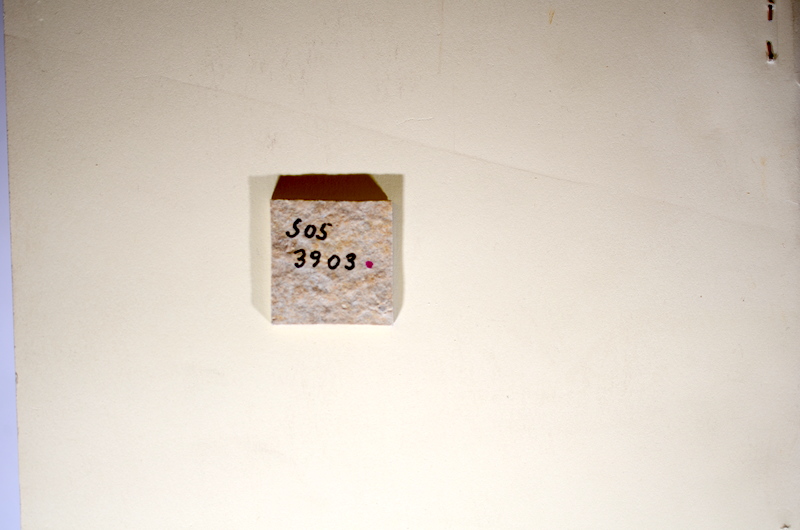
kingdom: Animalia
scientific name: Animalia
